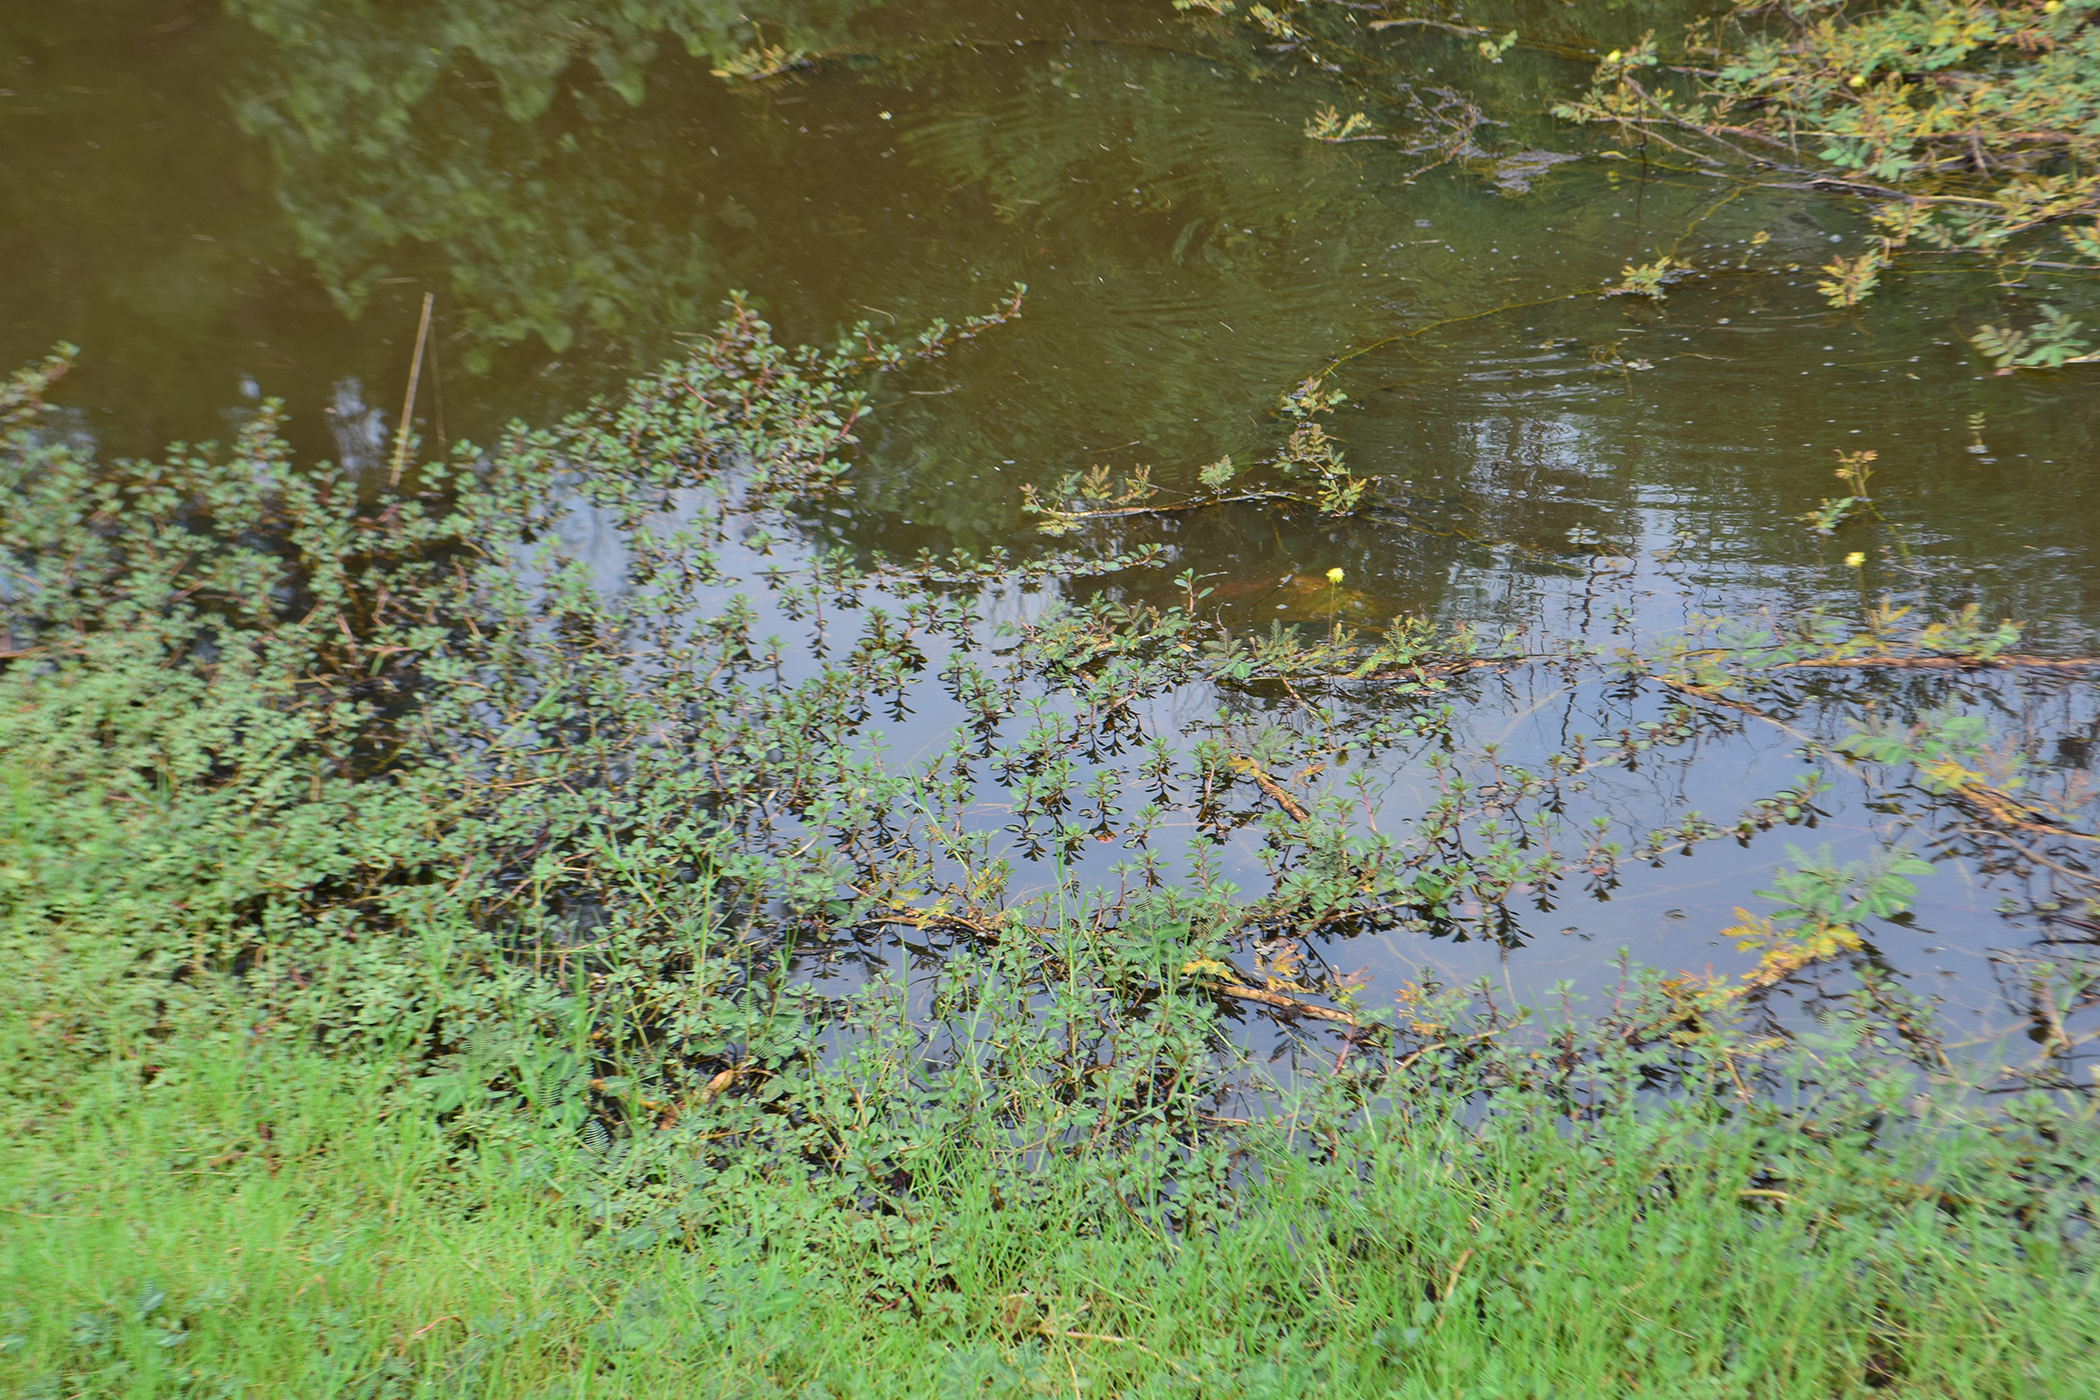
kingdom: Plantae
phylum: Tracheophyta
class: Magnoliopsida
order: Fabales
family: Fabaceae
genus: Neptunia
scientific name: Neptunia plena
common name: Dead and awake
